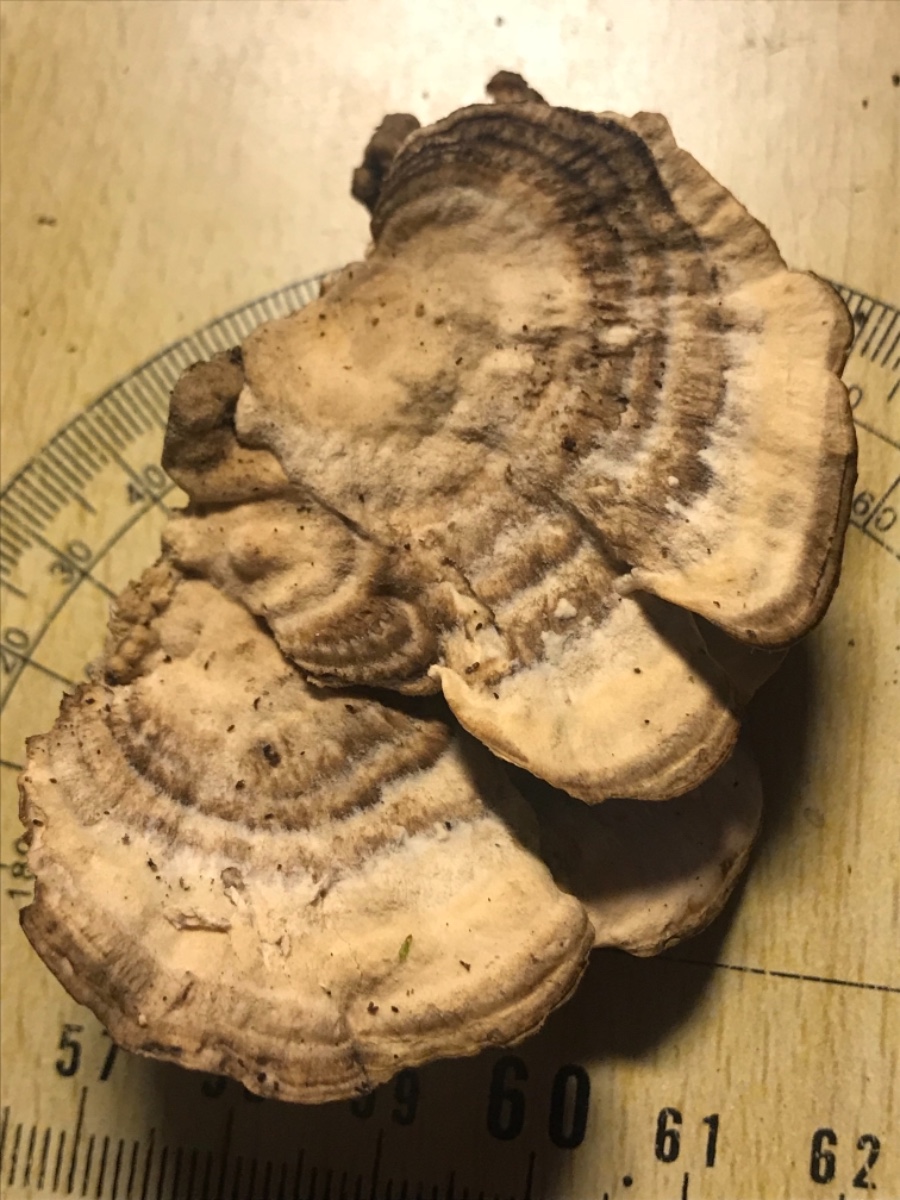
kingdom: Fungi
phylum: Basidiomycota
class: Agaricomycetes
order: Polyporales
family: Phanerochaetaceae
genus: Bjerkandera
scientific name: Bjerkandera adusta
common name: sveden sodporesvamp
